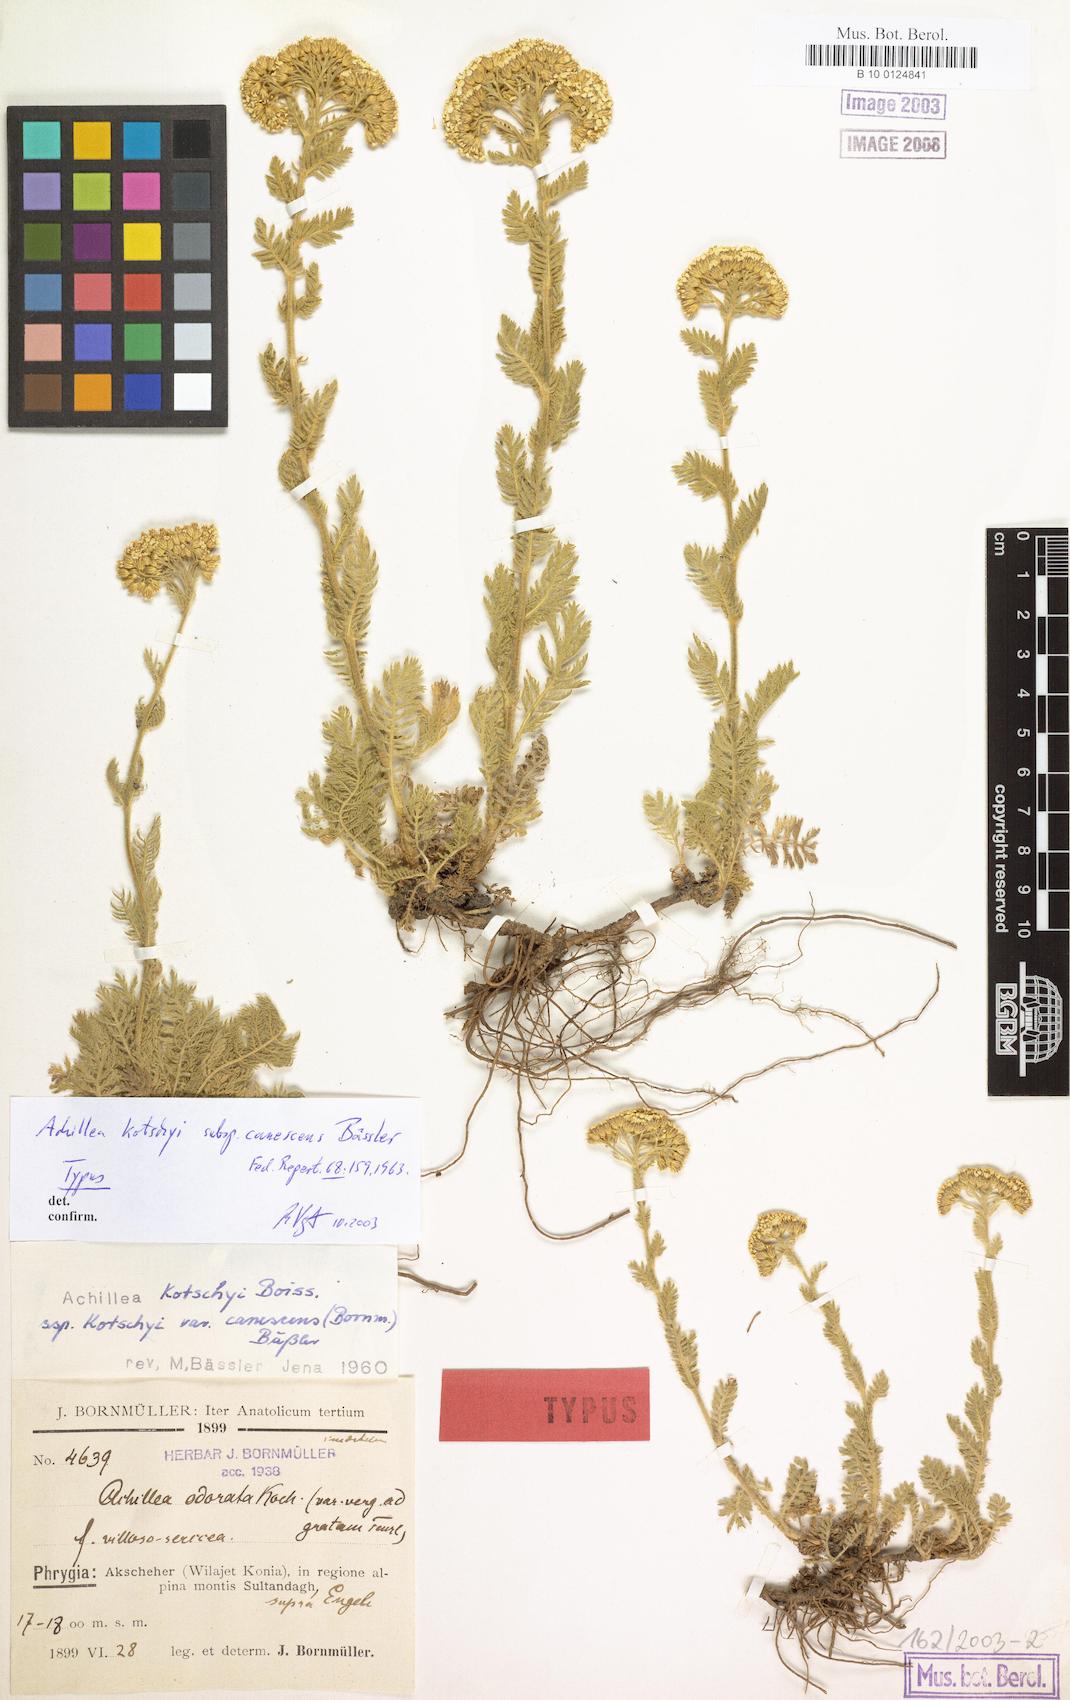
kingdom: Plantae
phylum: Tracheophyta
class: Magnoliopsida
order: Asterales
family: Asteraceae
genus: Achillea
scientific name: Achillea kotschyi
